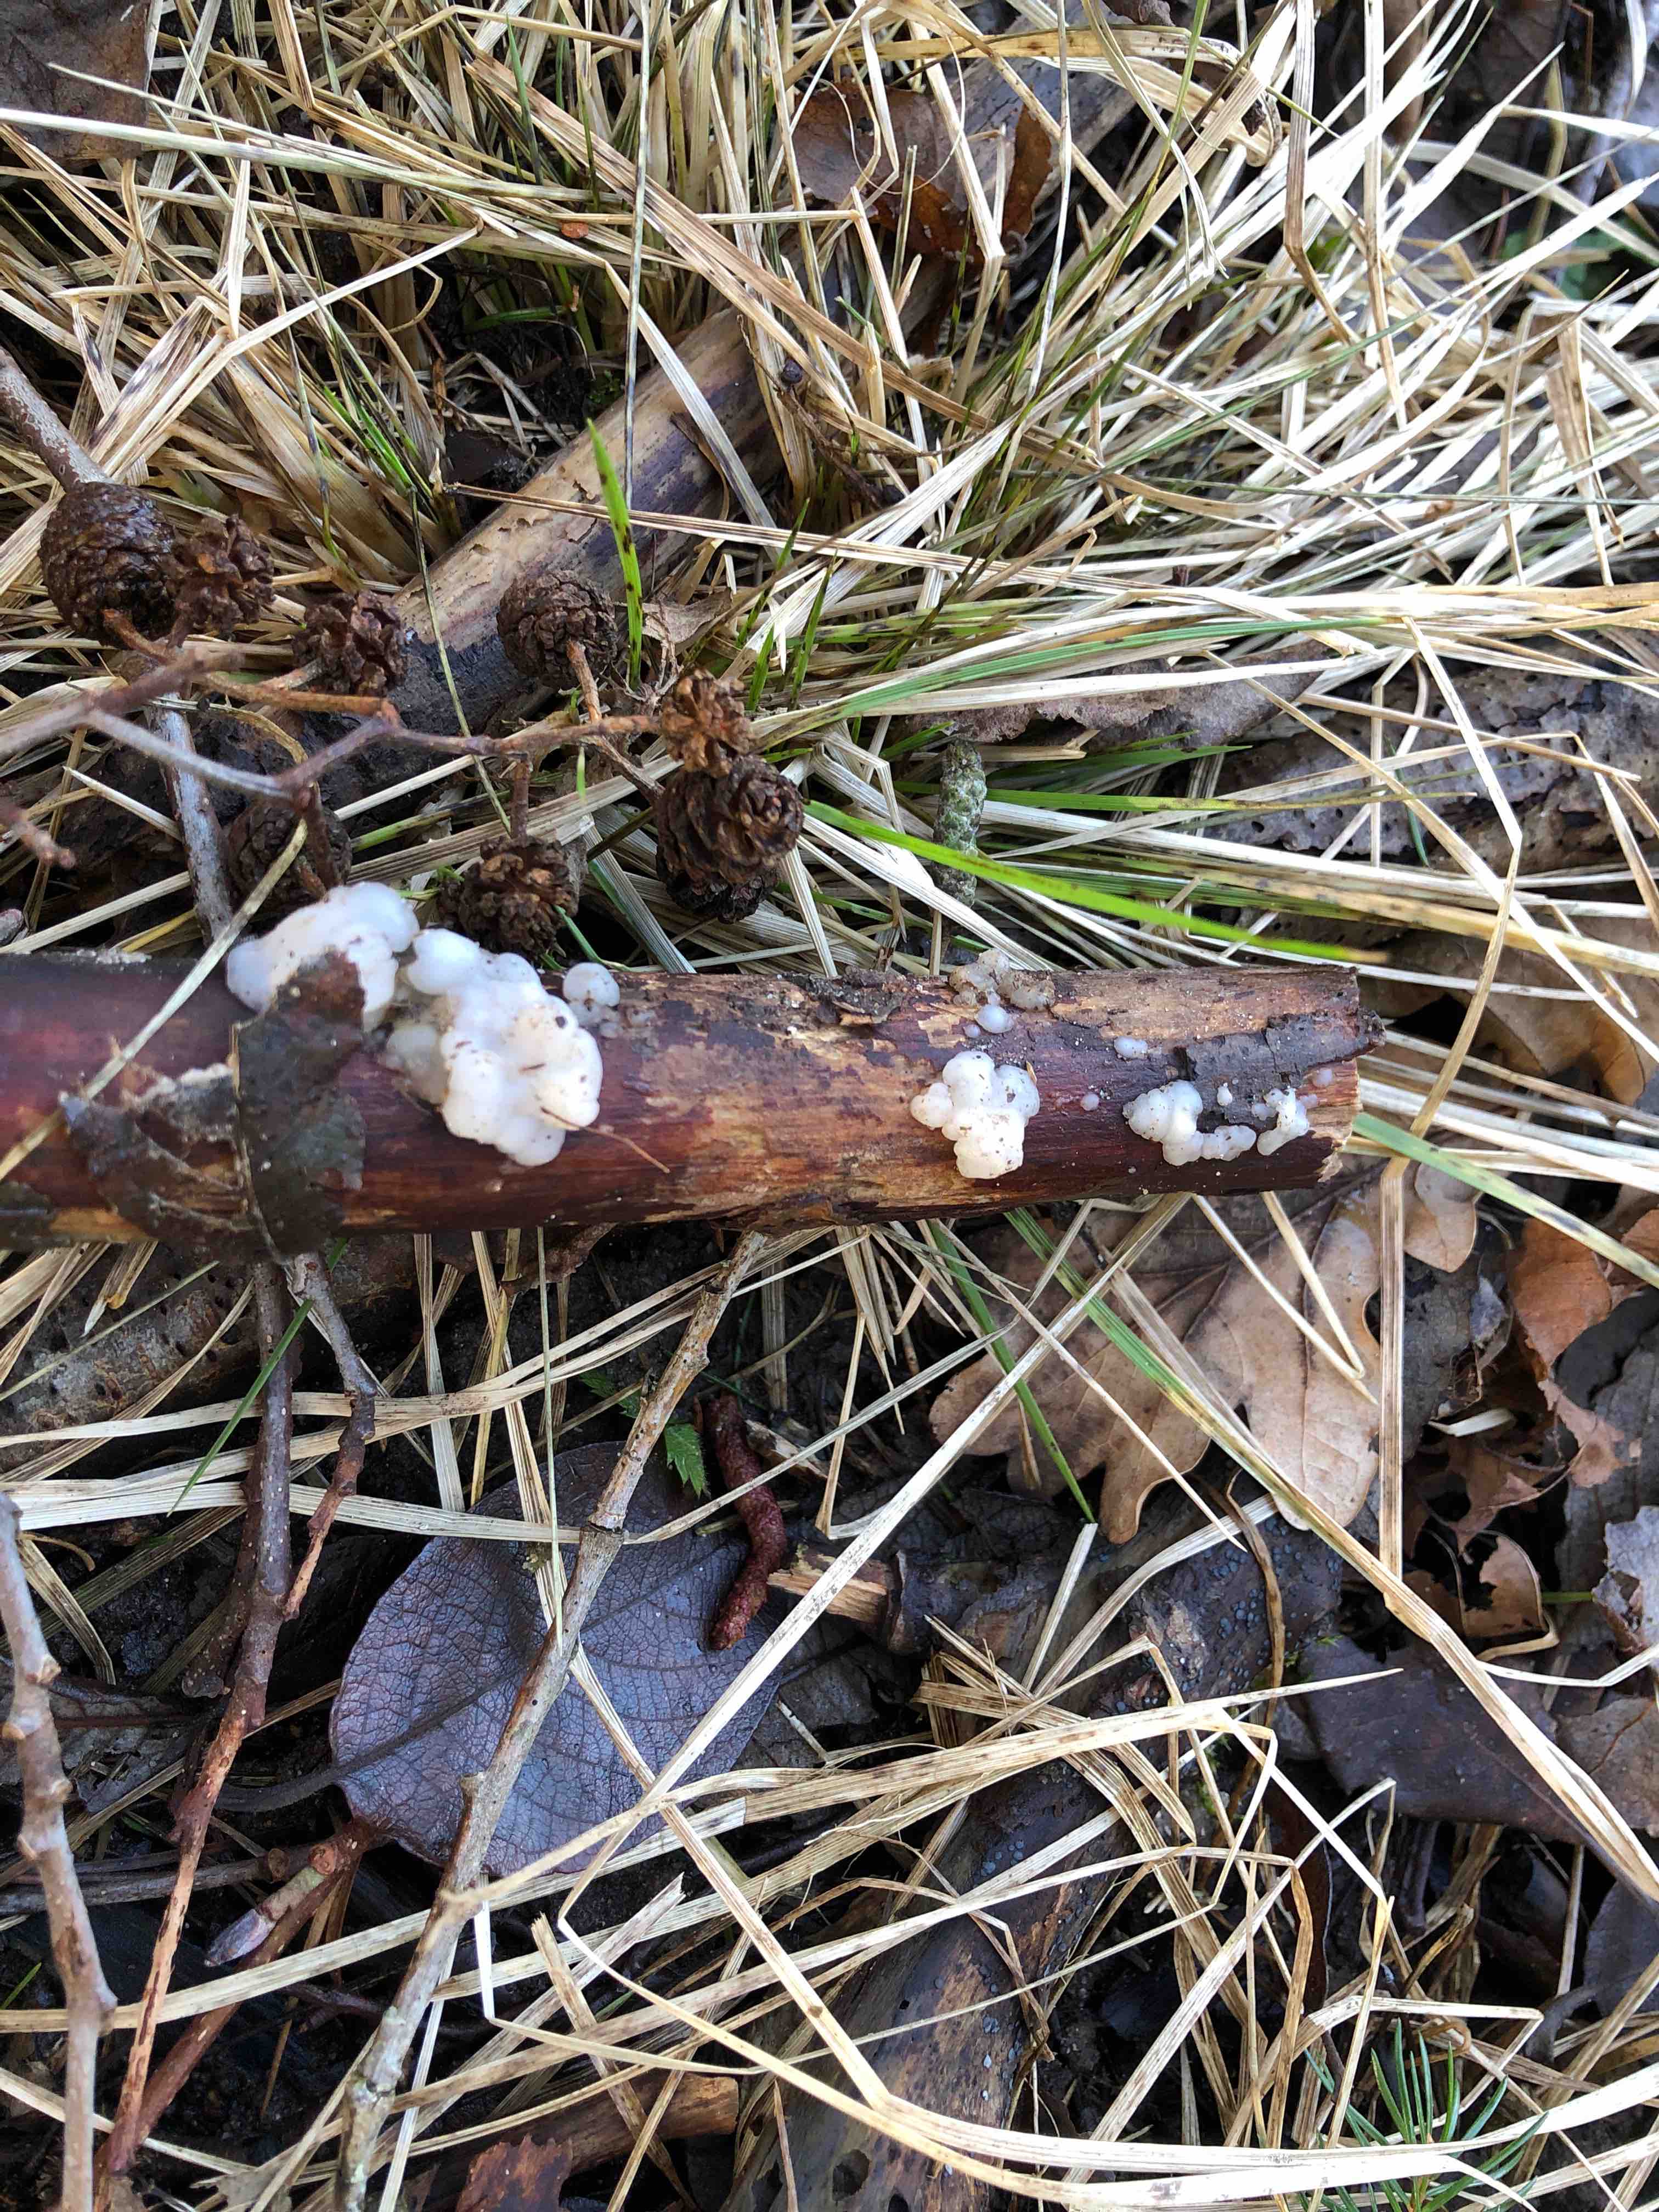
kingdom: Fungi
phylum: Basidiomycota
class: Agaricomycetes
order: Auriculariales
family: Auriculariaceae
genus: Exidia
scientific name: Exidia thuretiana
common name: hvidlig bævretop
